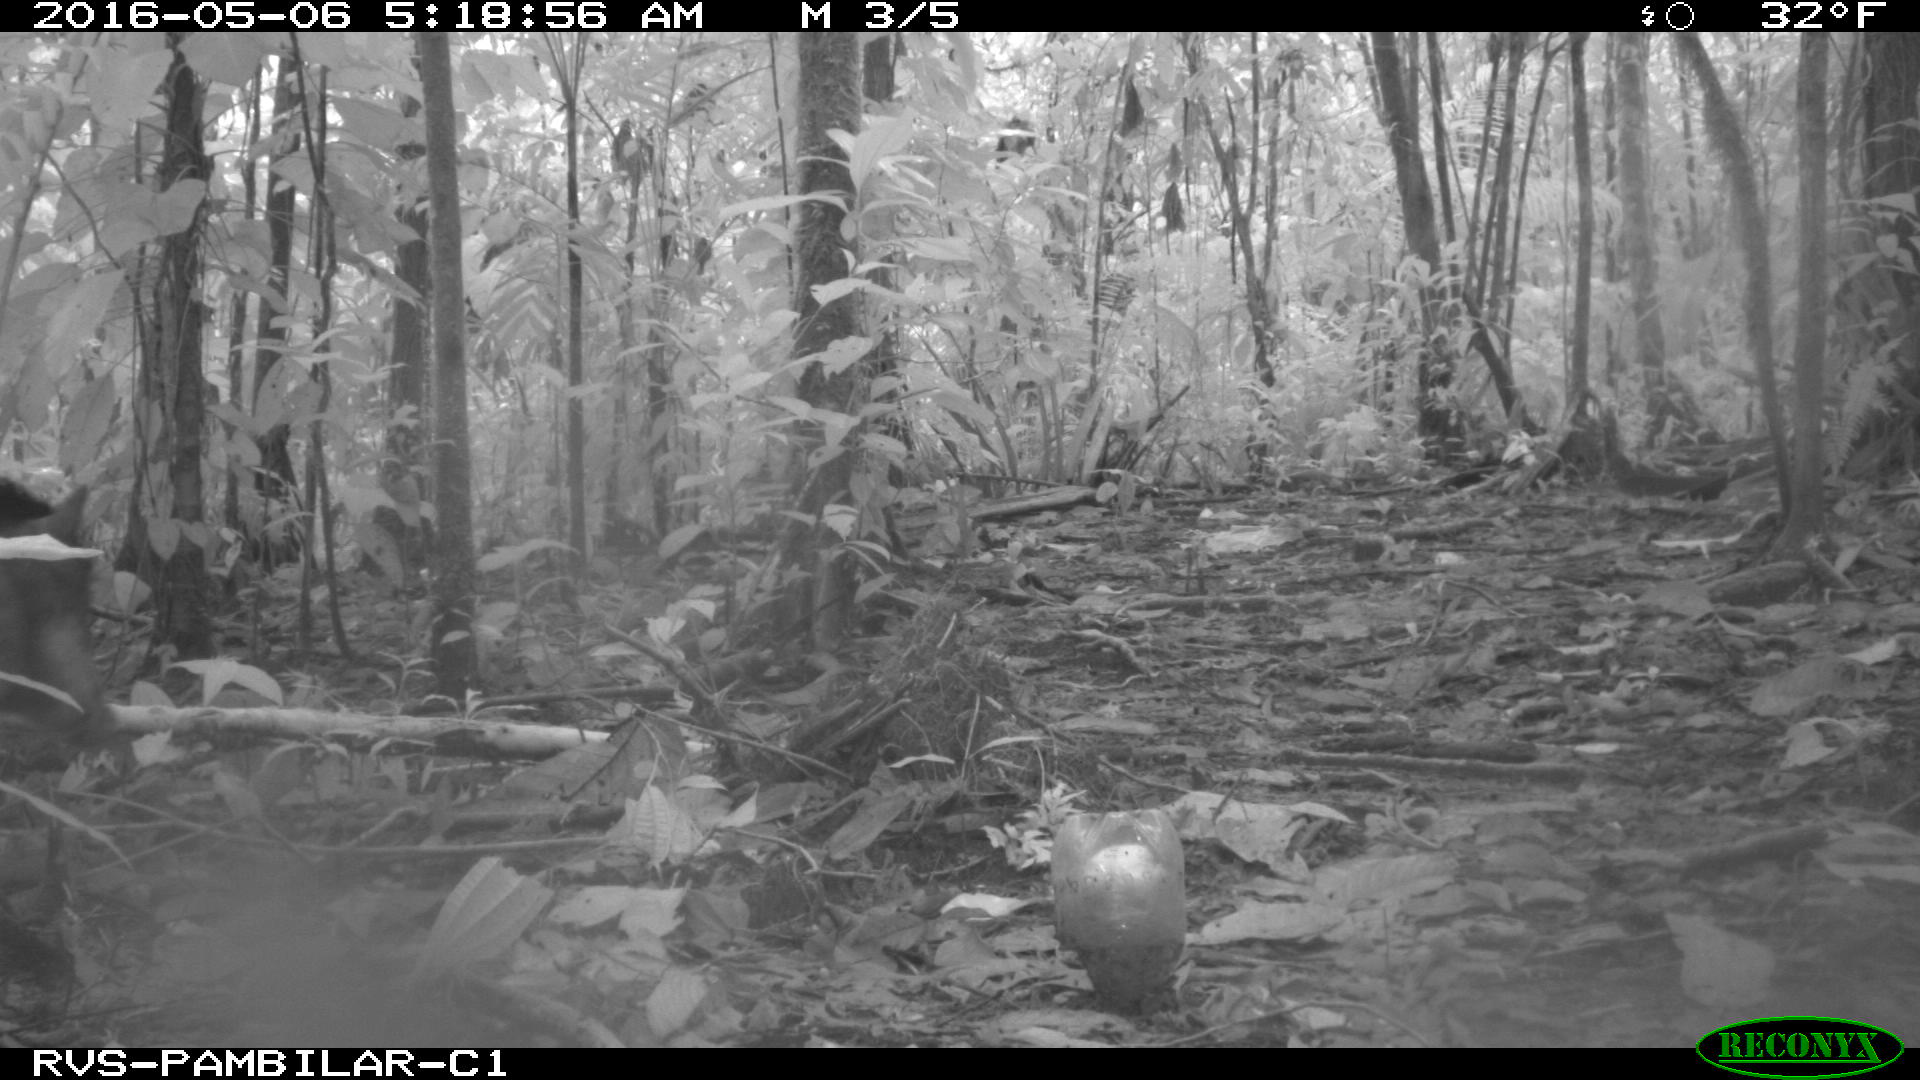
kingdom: Animalia
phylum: Chordata
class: Mammalia
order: Artiodactyla
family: Tayassuidae
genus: Tayassu
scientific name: Tayassu pecari
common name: White-lipped peccary
